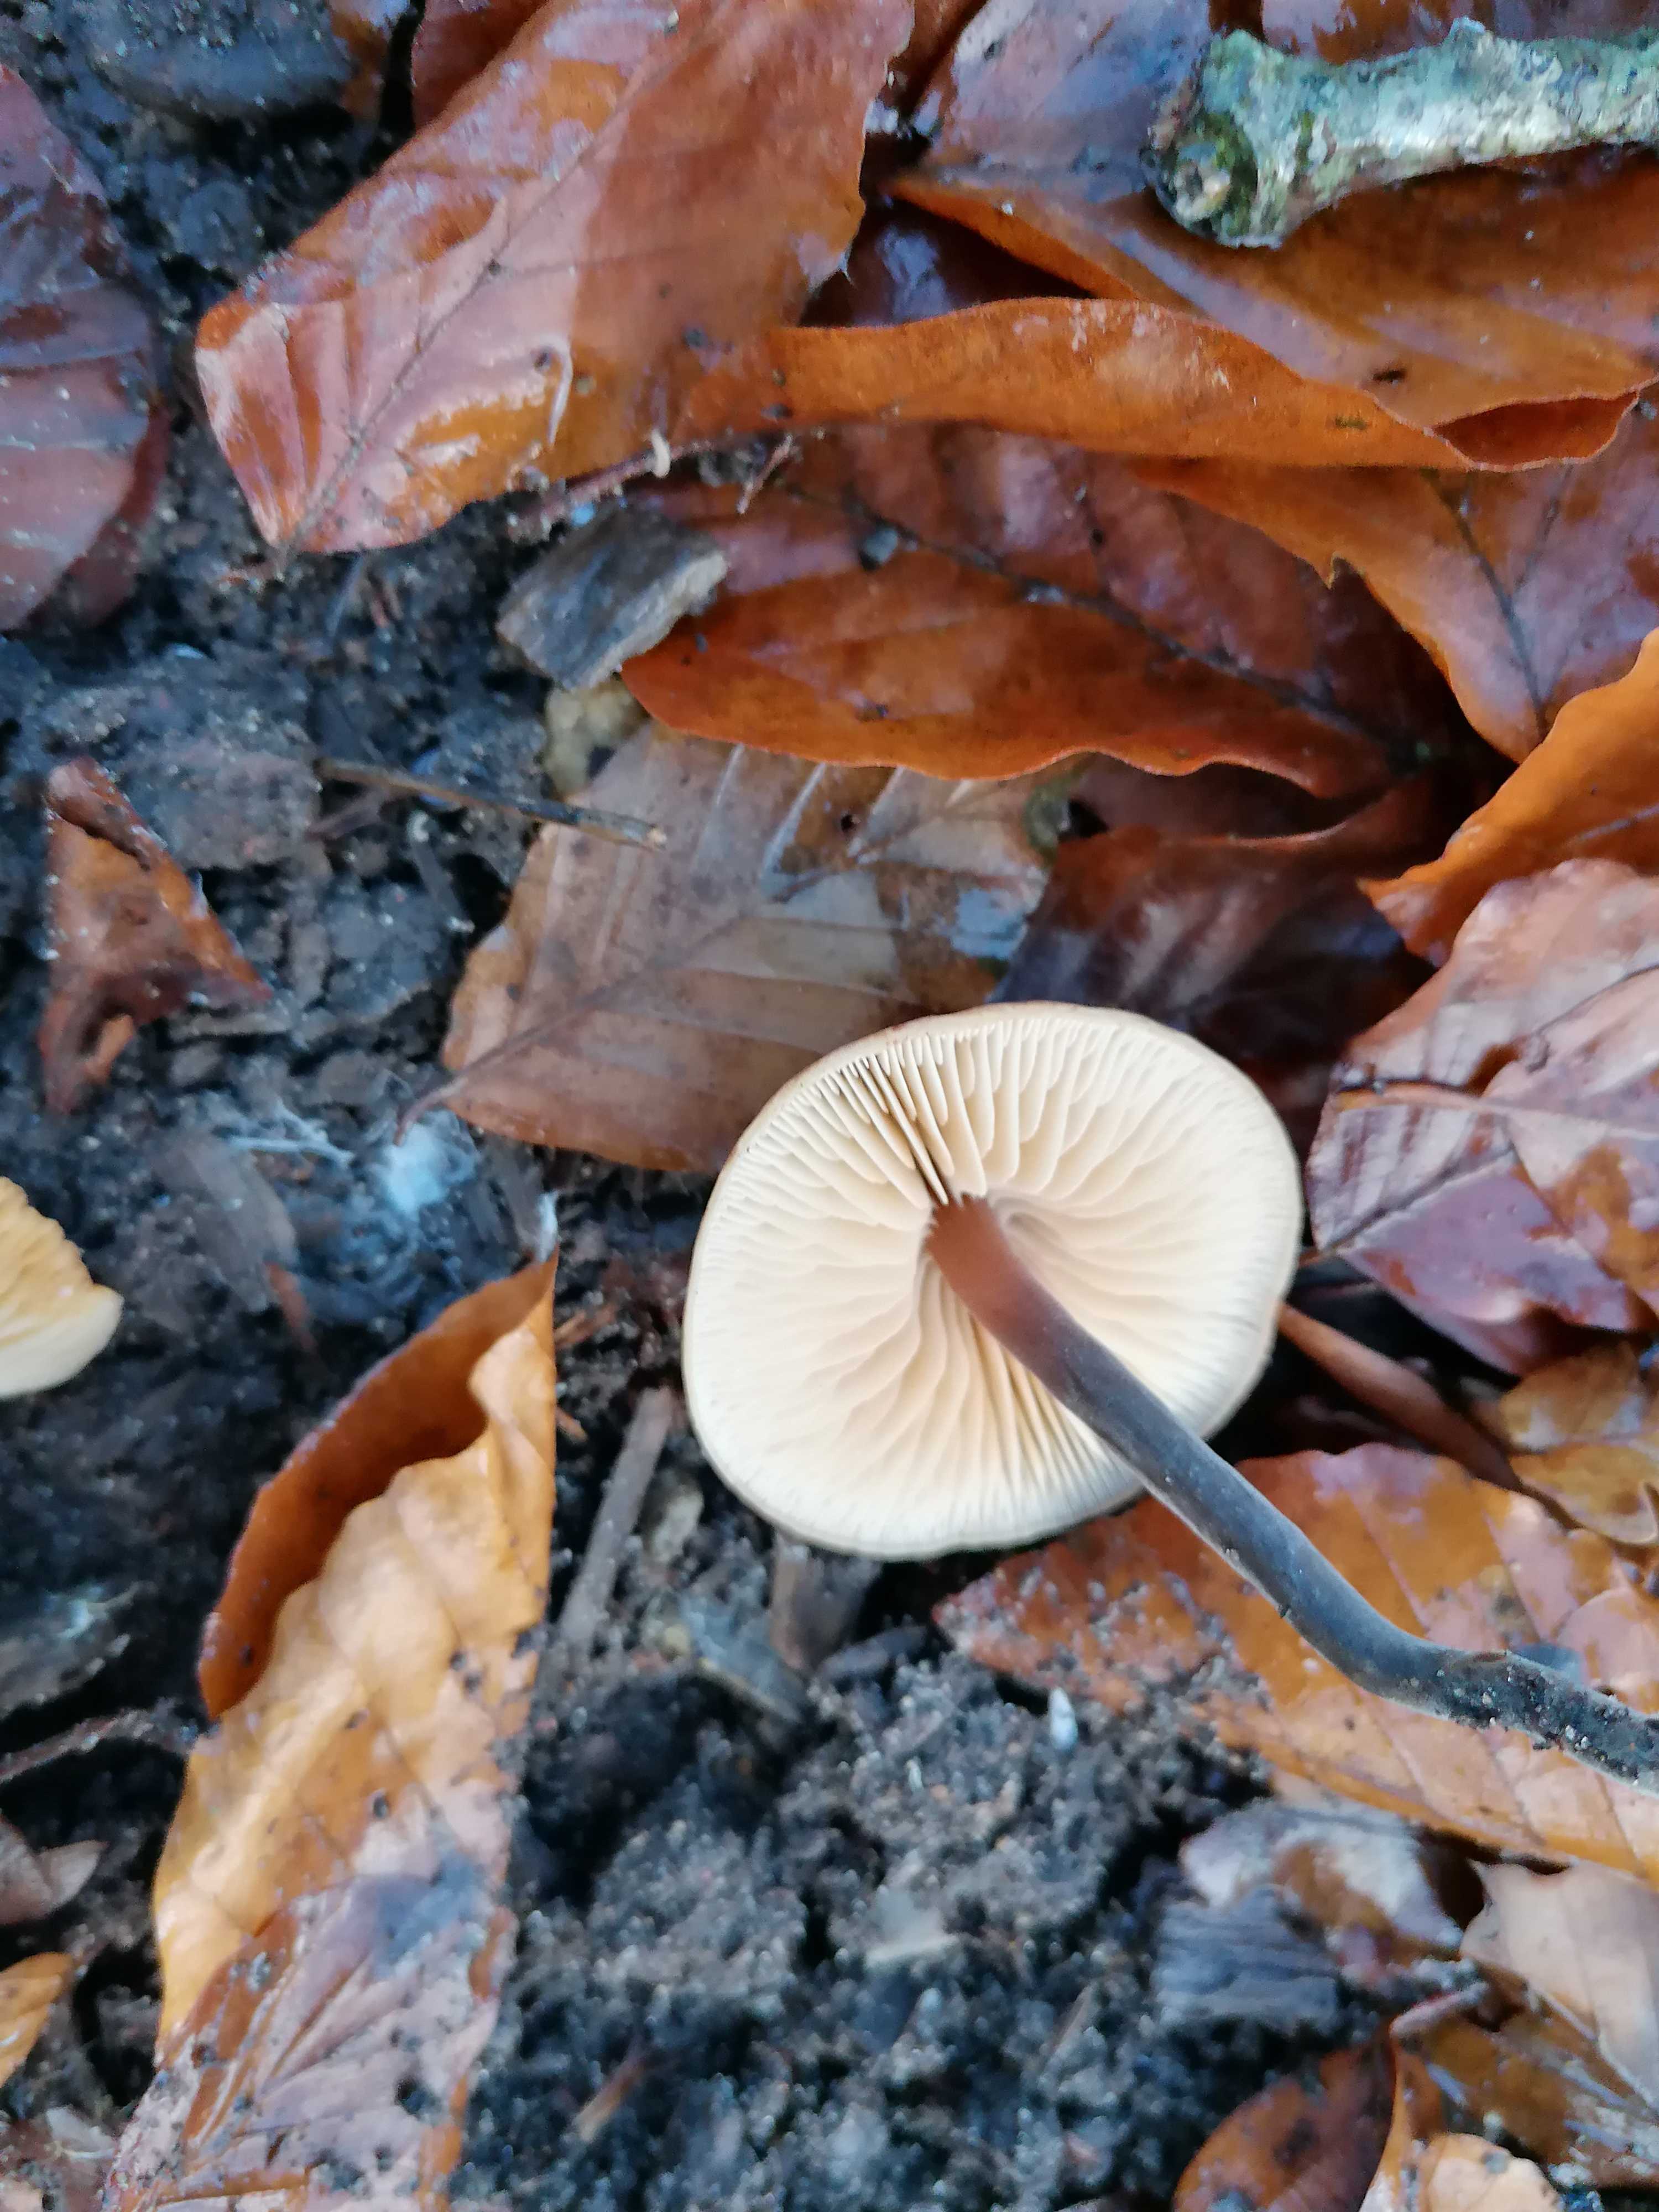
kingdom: Fungi
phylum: Basidiomycota
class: Agaricomycetes
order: Agaricales
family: Macrocystidiaceae
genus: Macrocystidia
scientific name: Macrocystidia cucumis
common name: agurkehat
